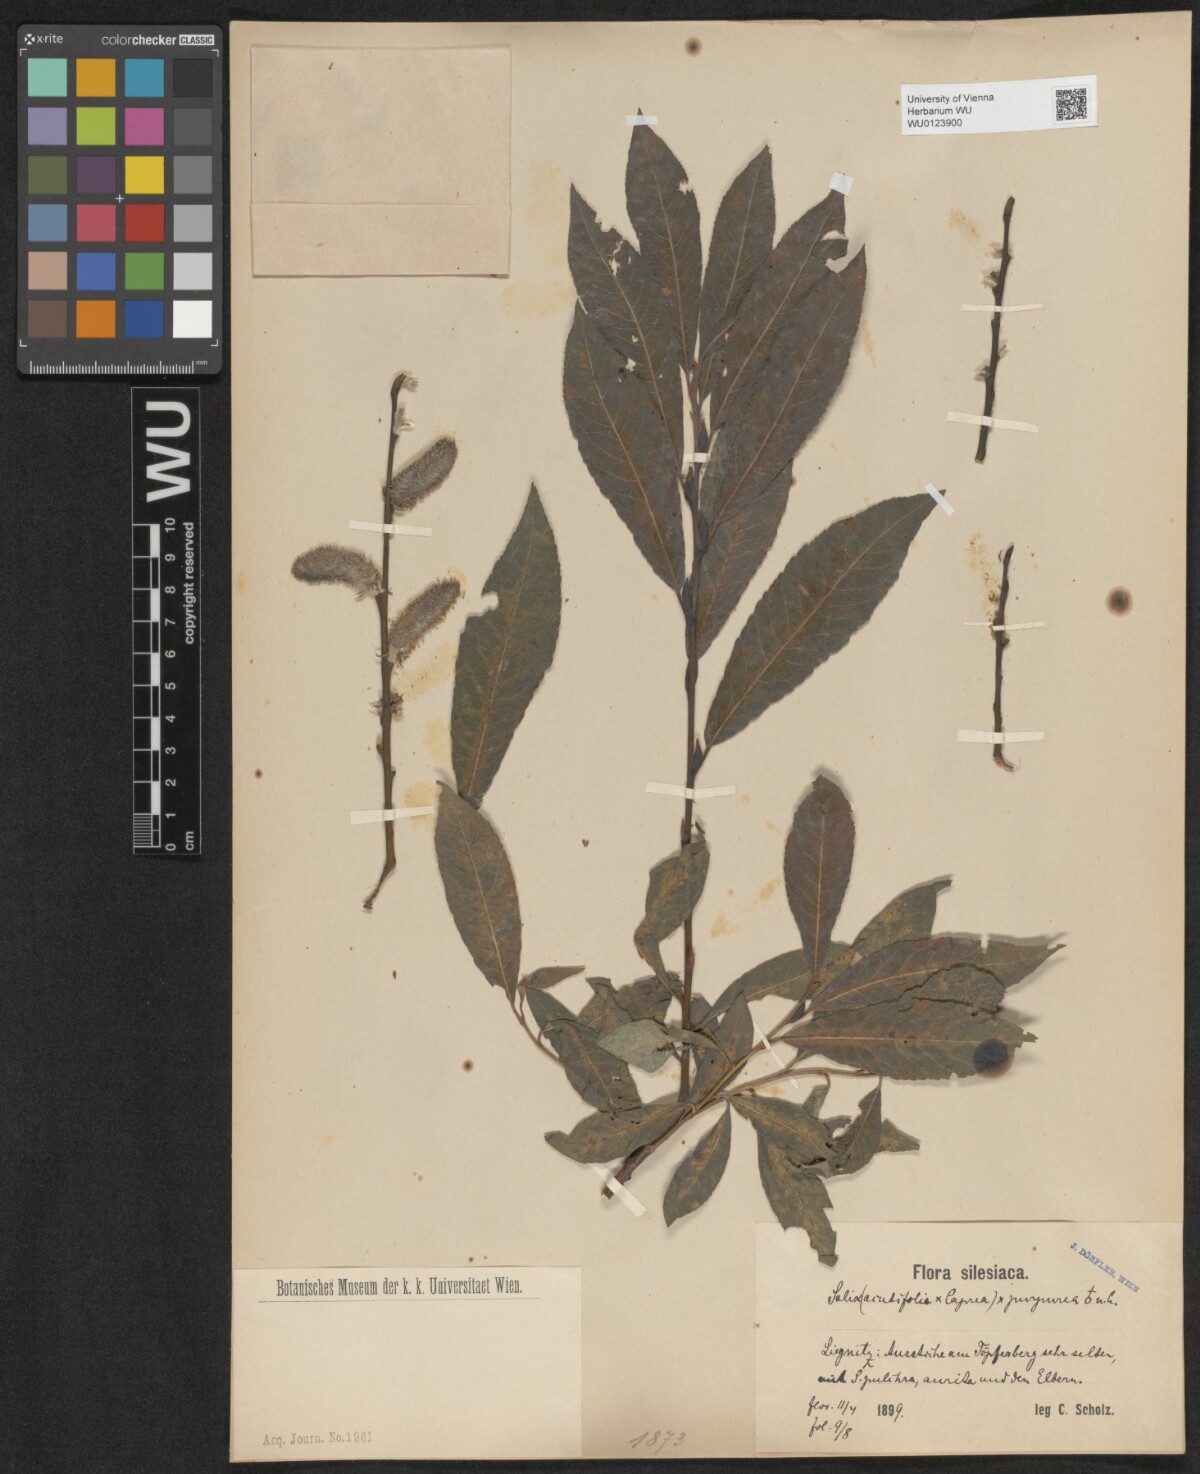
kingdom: Plantae
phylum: Tracheophyta
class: Magnoliopsida
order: Malpighiales
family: Salicaceae
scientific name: Salicaceae
